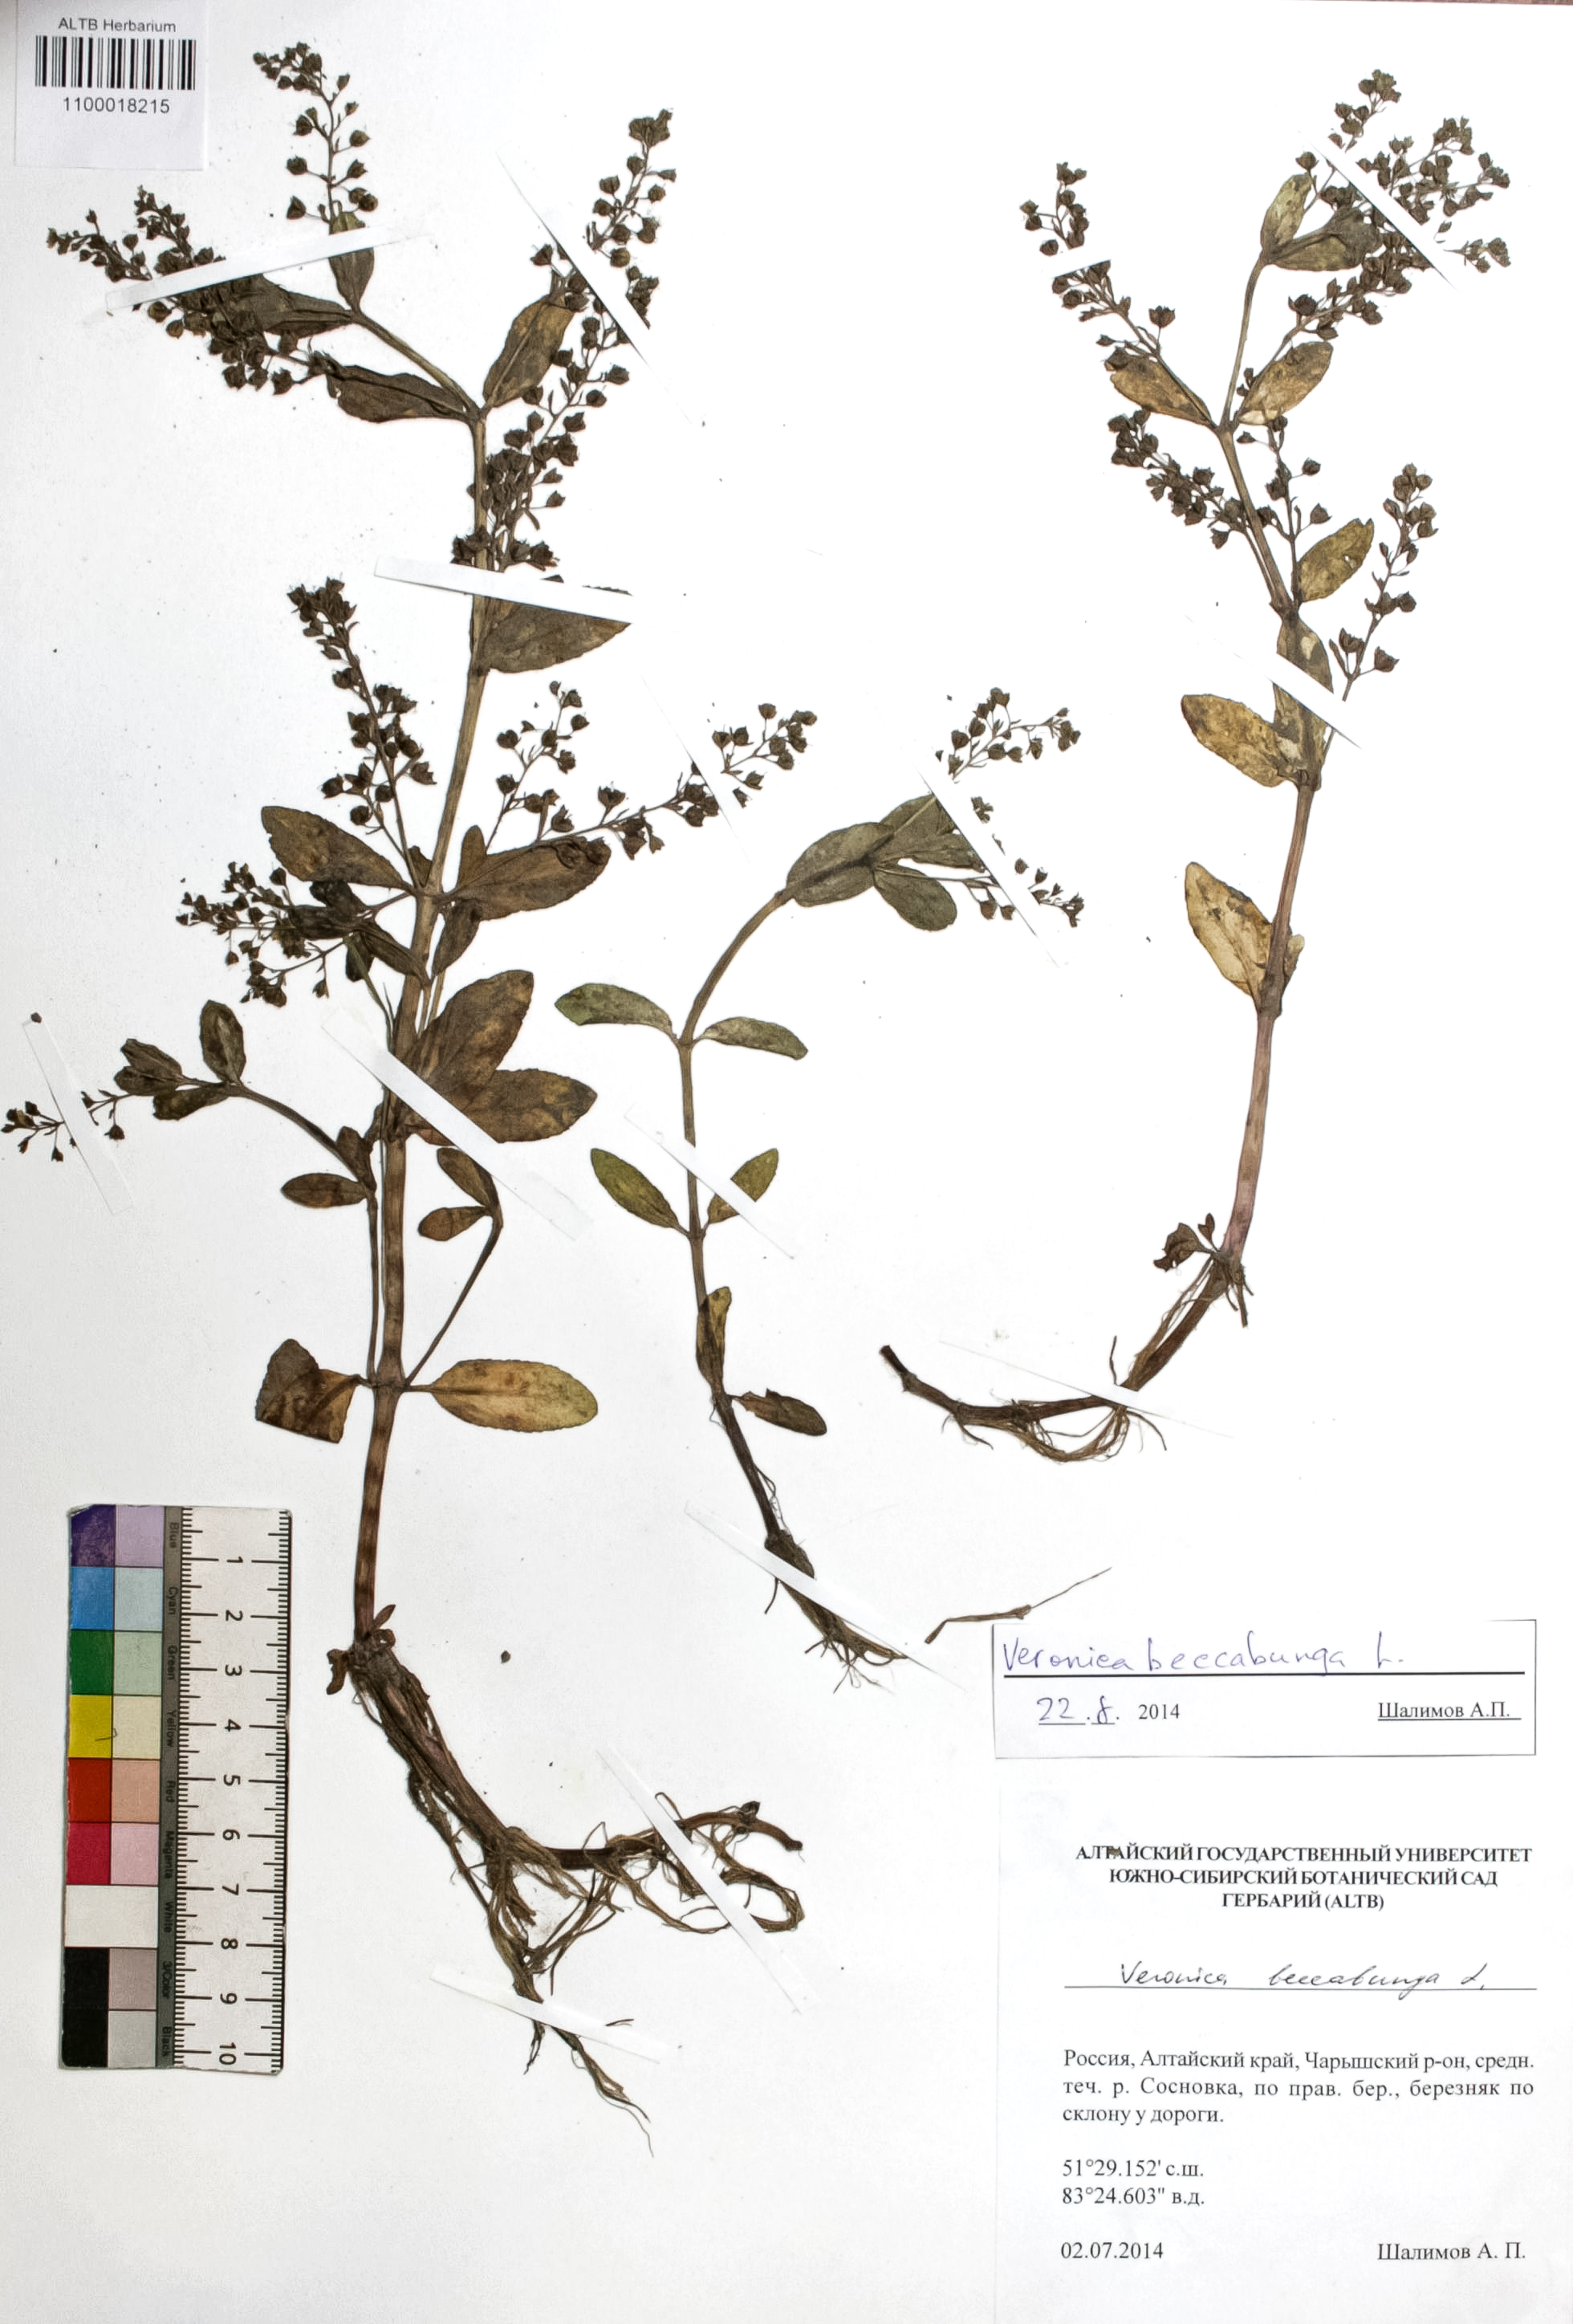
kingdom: Plantae
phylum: Tracheophyta
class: Magnoliopsida
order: Lamiales
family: Plantaginaceae
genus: Veronica
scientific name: Veronica beccabunga
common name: Brooklime
